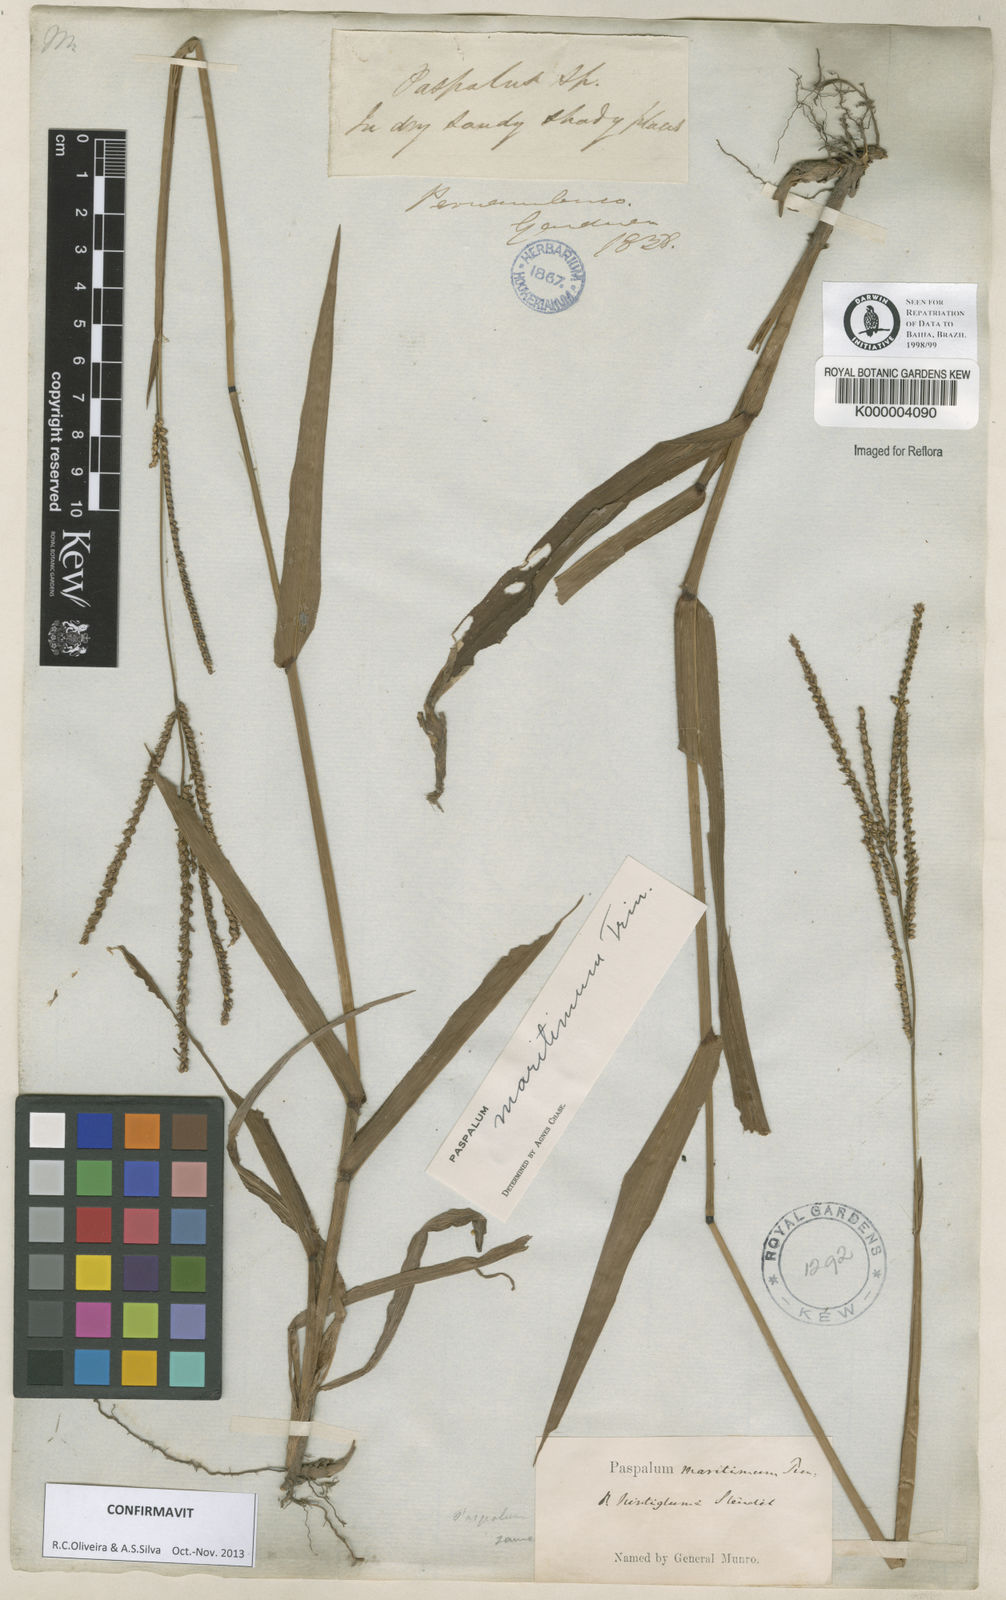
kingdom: Plantae
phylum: Tracheophyta
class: Liliopsida
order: Poales
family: Poaceae
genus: Paspalum
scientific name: Paspalum maritimum
